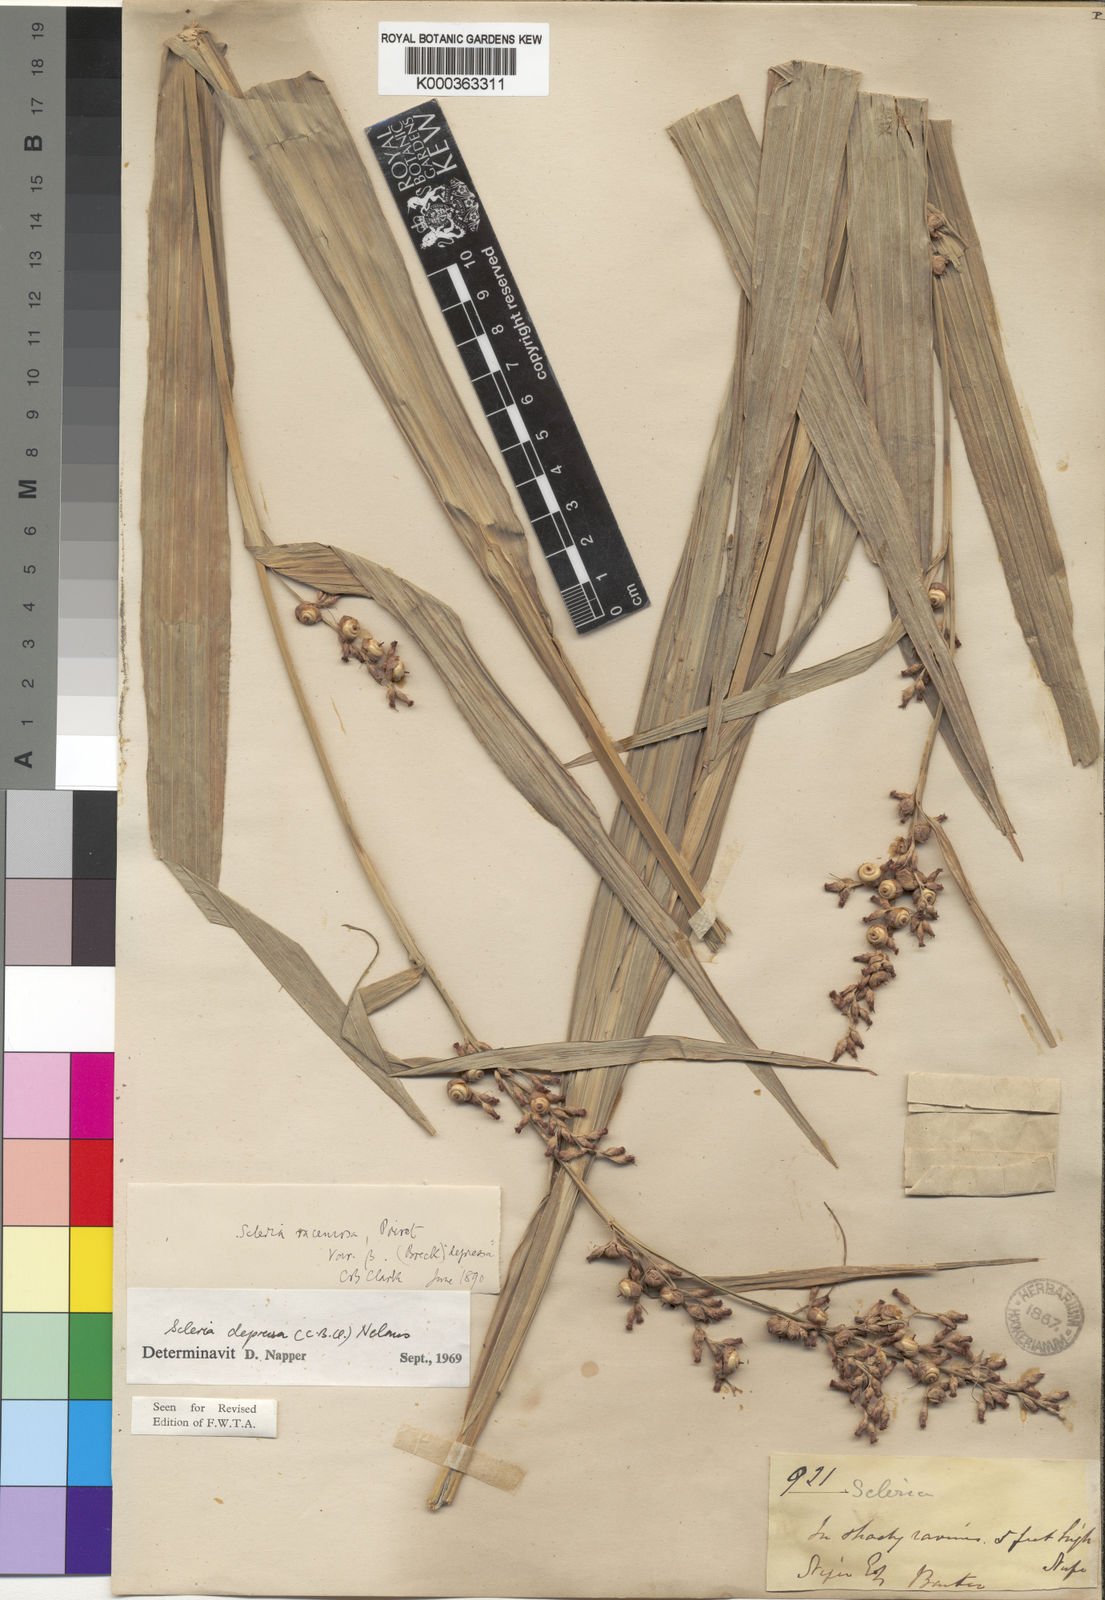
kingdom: Plantae
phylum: Tracheophyta
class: Liliopsida
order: Poales
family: Cyperaceae
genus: Scleria
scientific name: Scleria depressa
